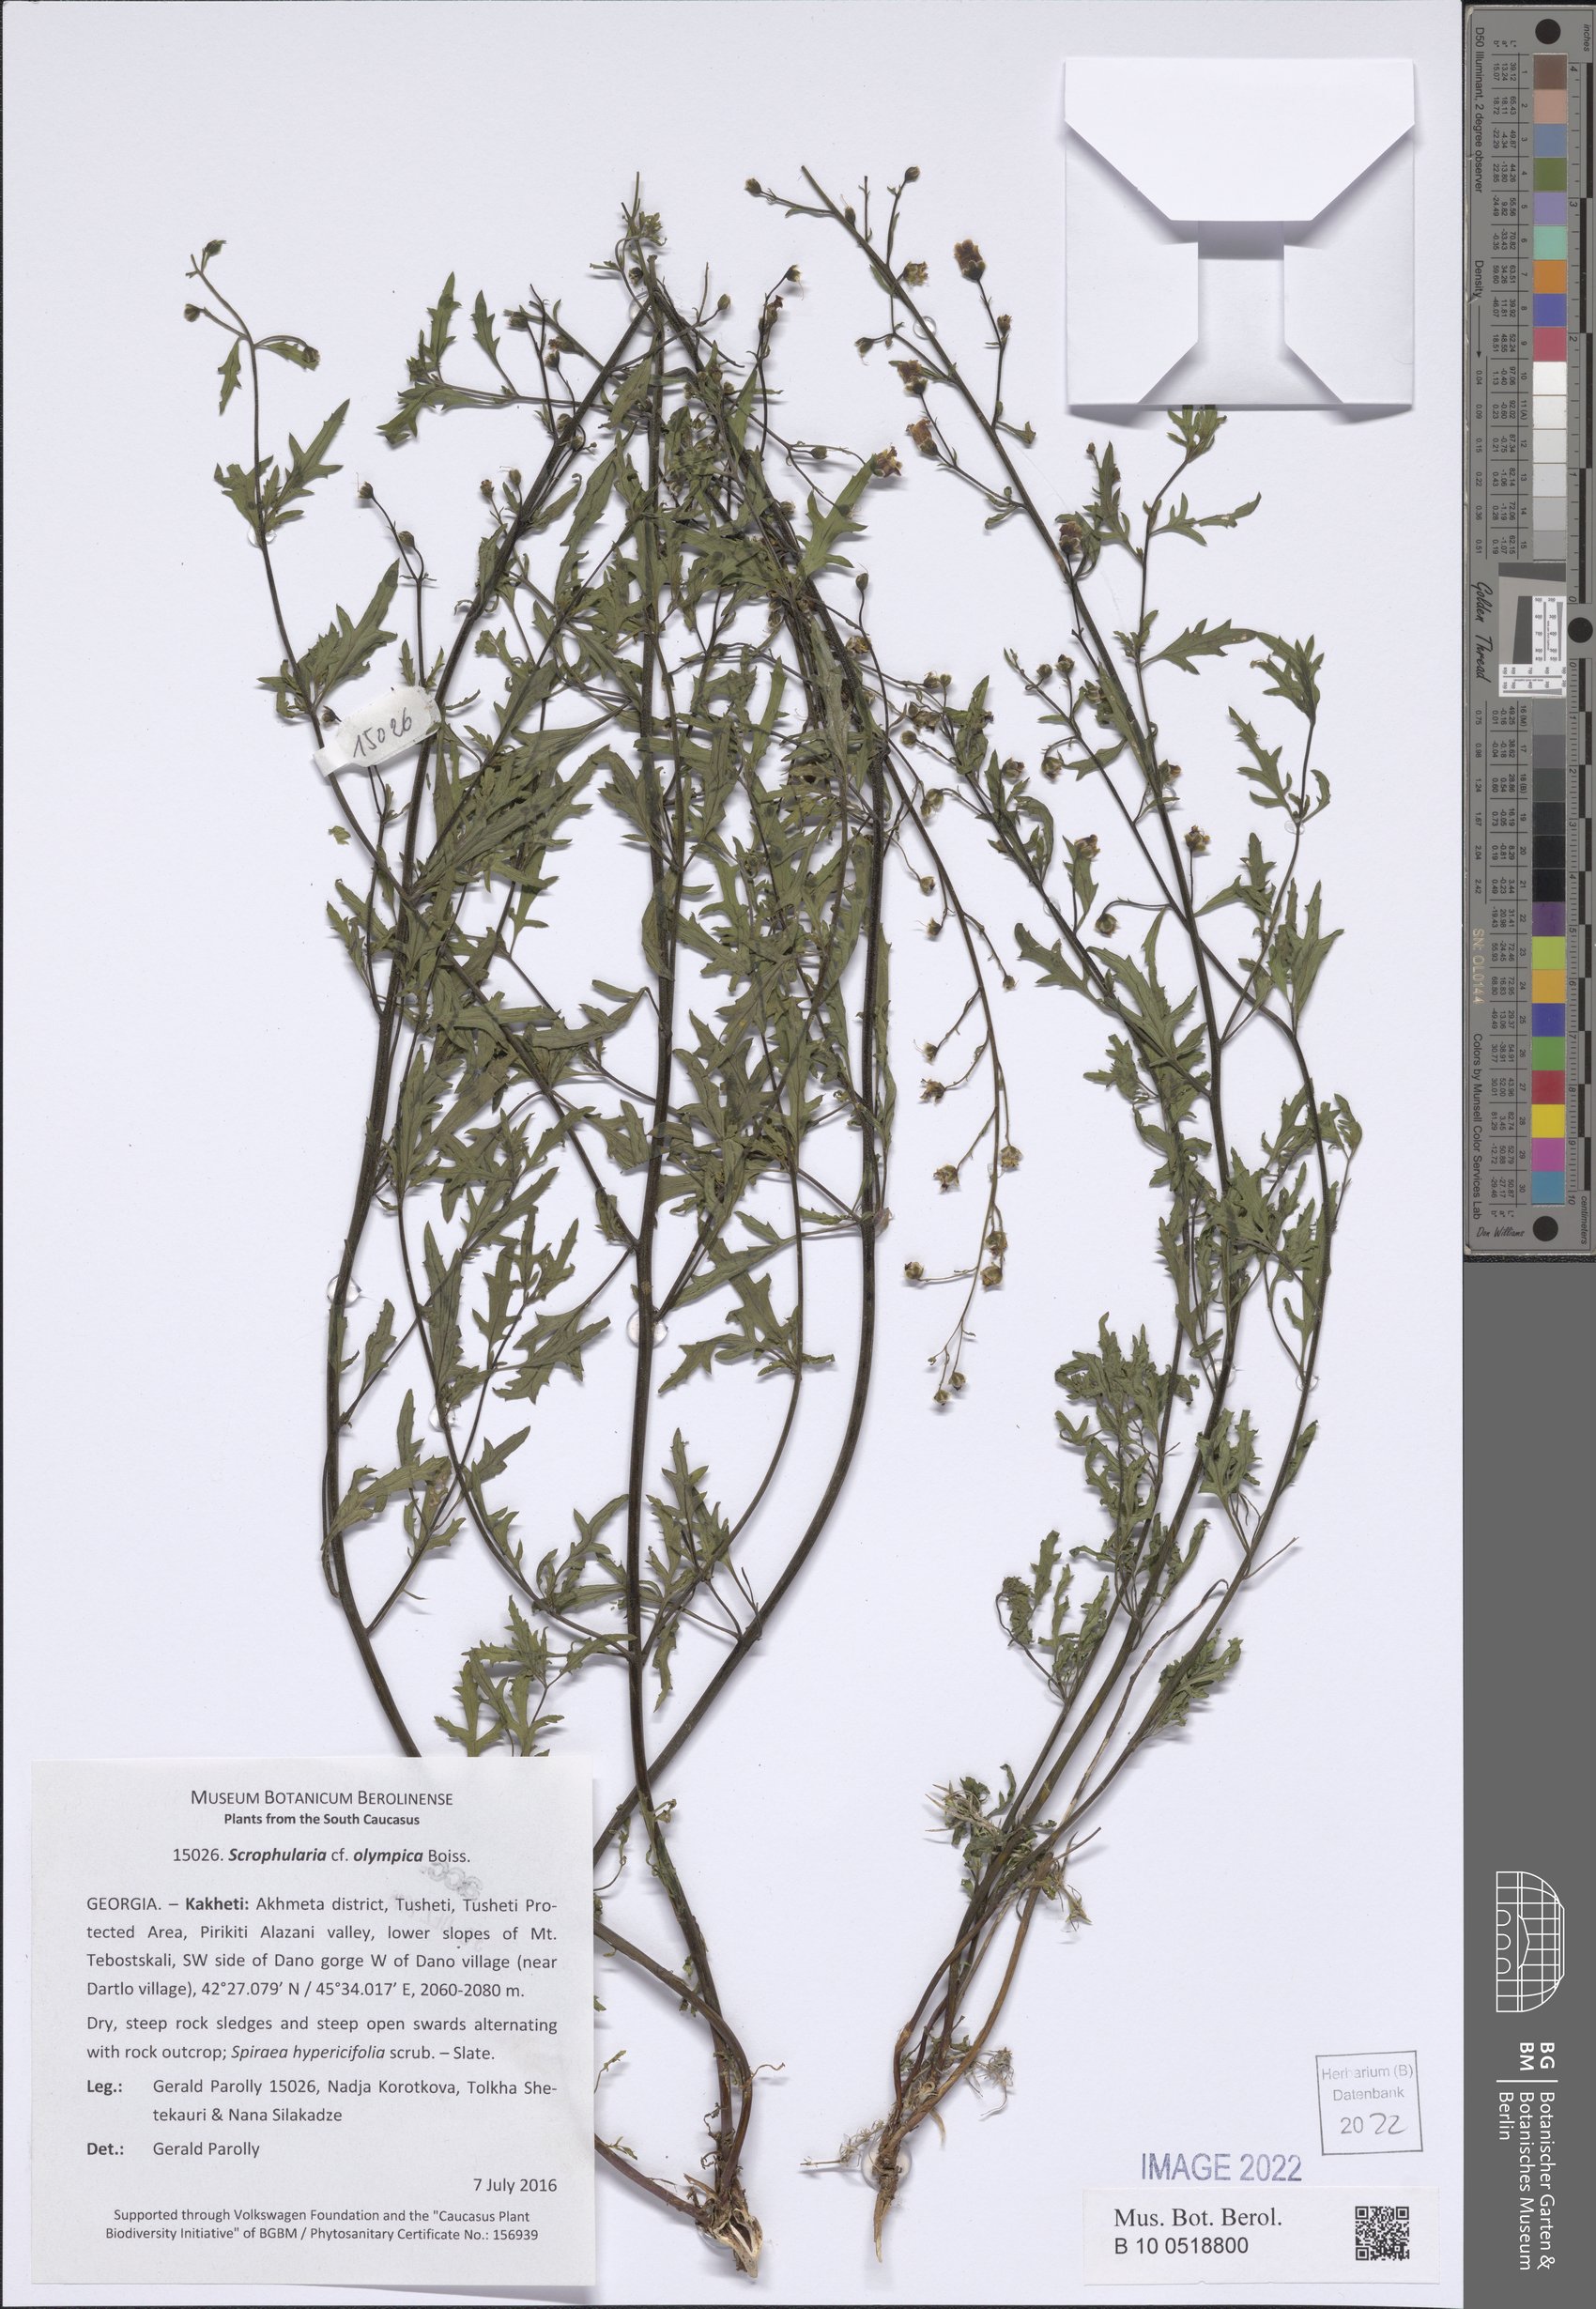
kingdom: Plantae
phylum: Tracheophyta
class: Magnoliopsida
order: Lamiales
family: Scrophulariaceae
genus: Scrophularia
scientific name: Scrophularia olympica
